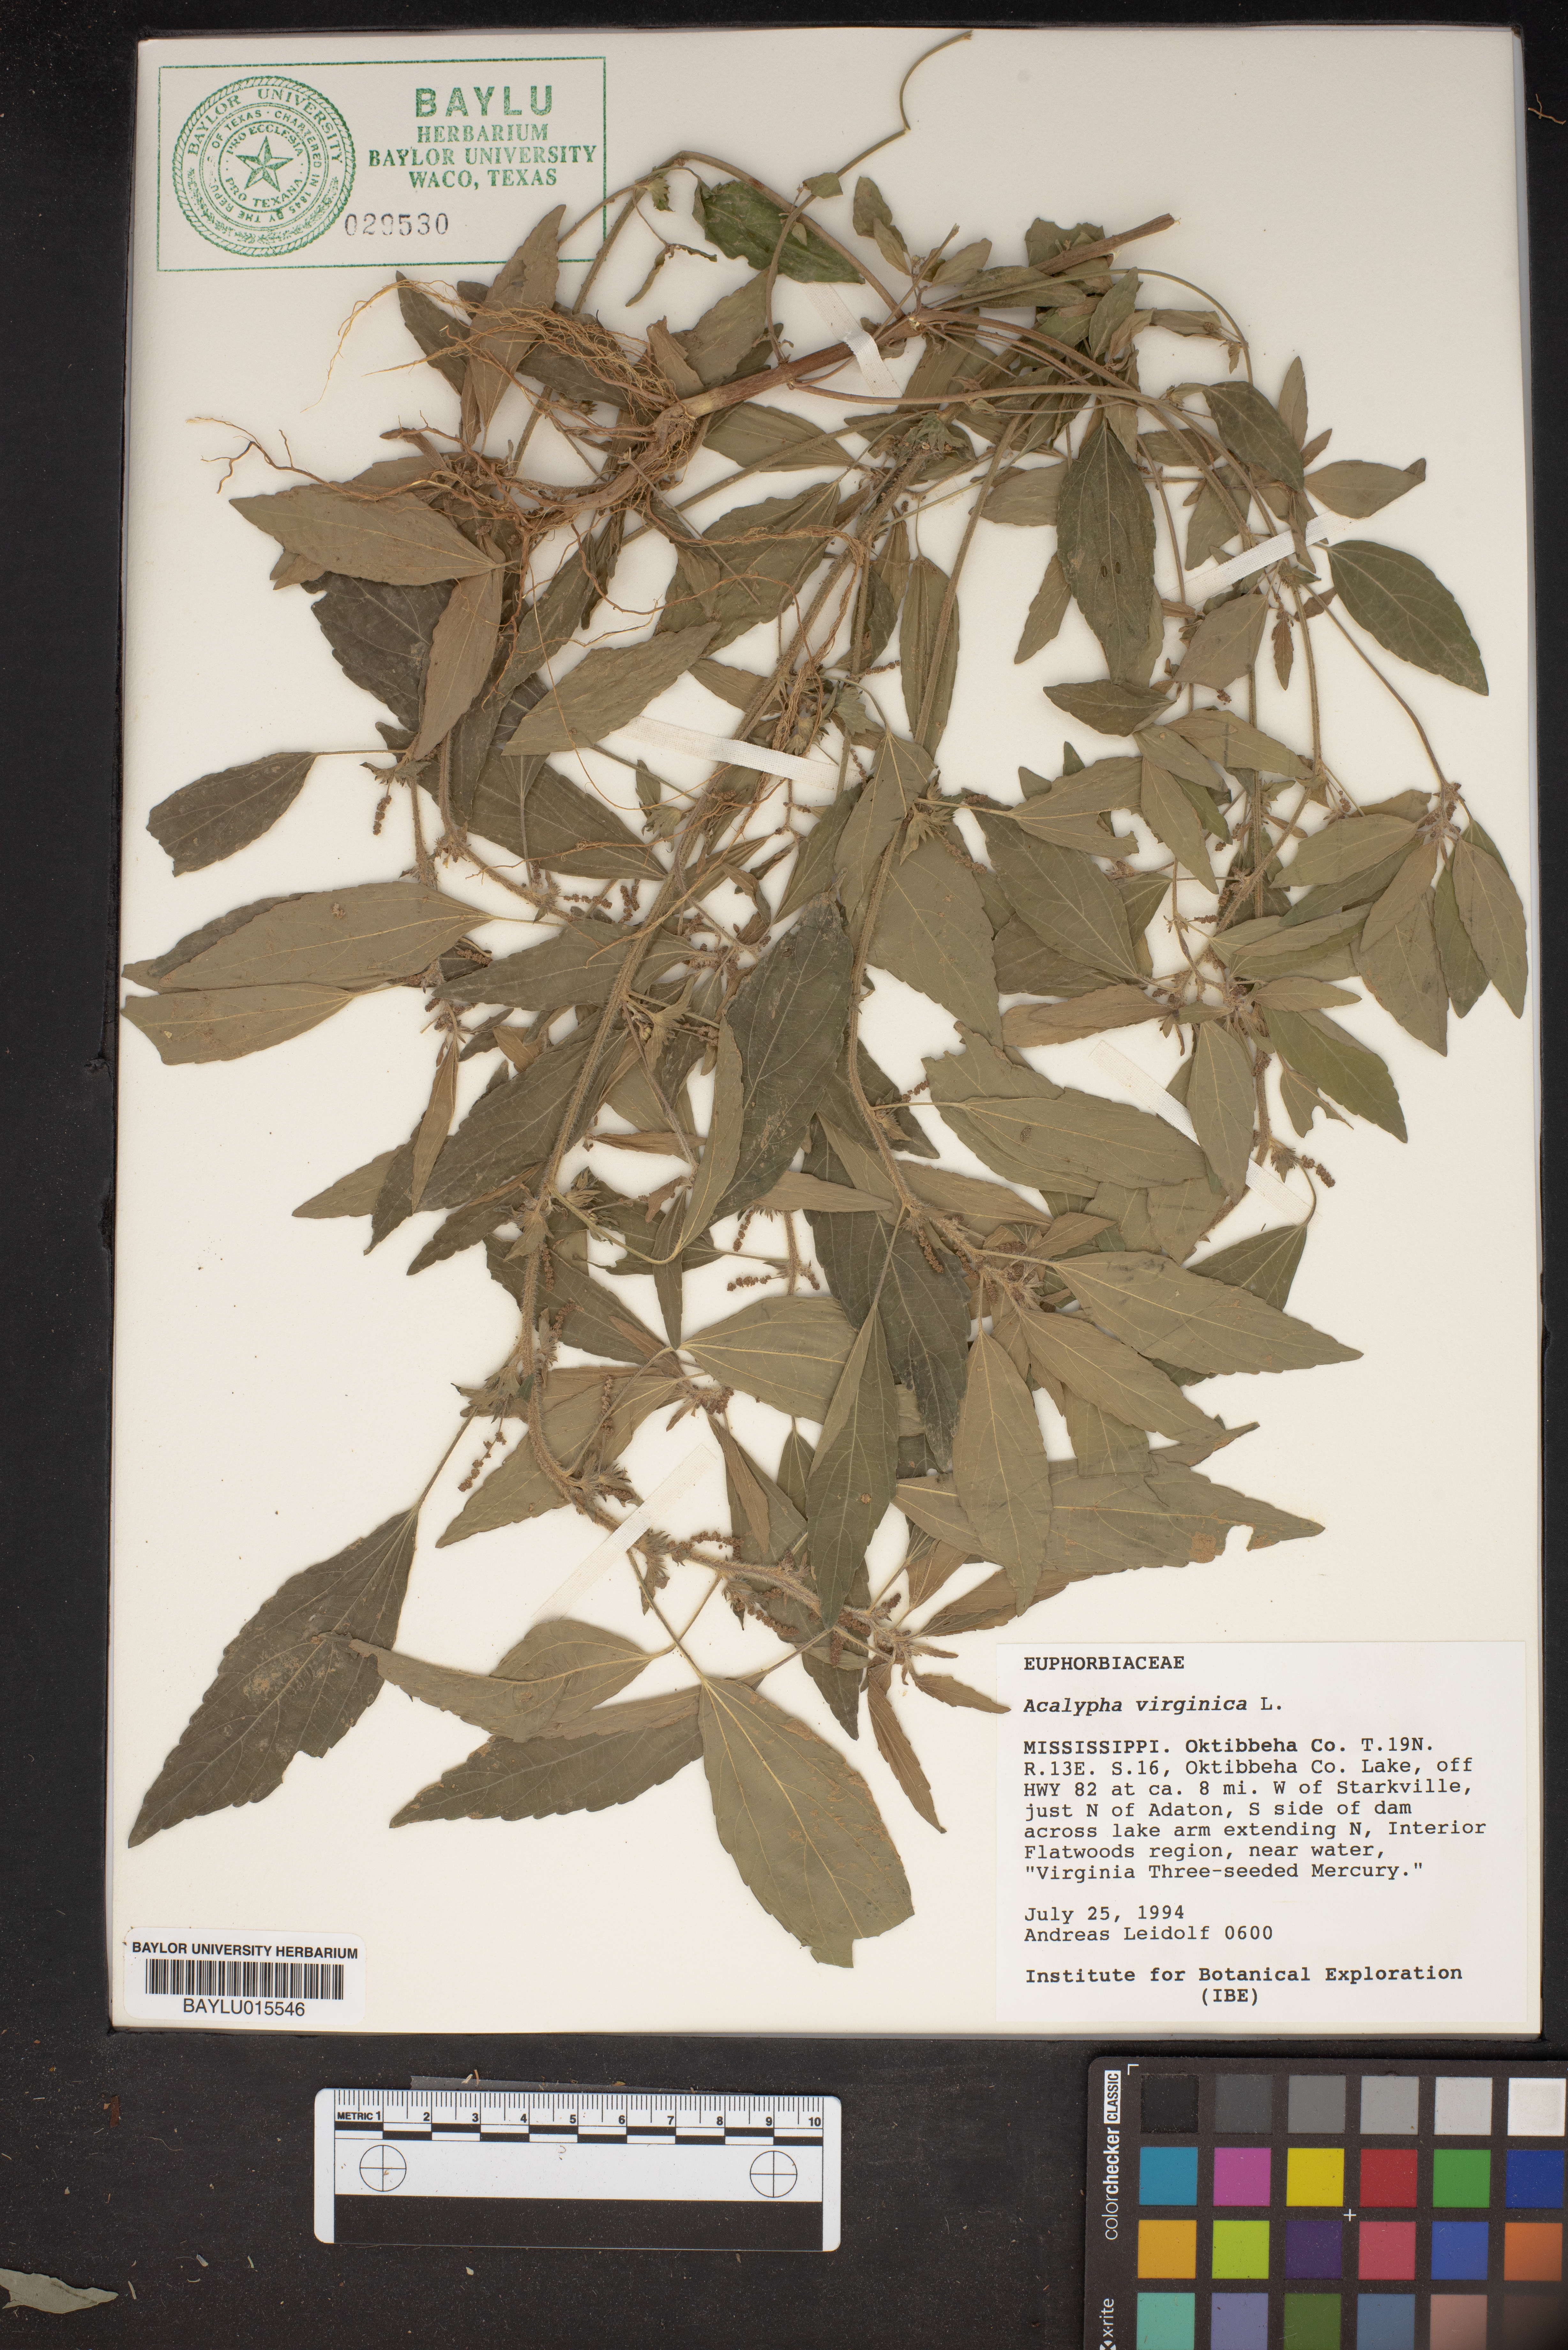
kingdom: Plantae
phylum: Tracheophyta
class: Magnoliopsida
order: Malpighiales
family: Euphorbiaceae
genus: Acalypha
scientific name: Acalypha virginica
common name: Virginia copperleaf
